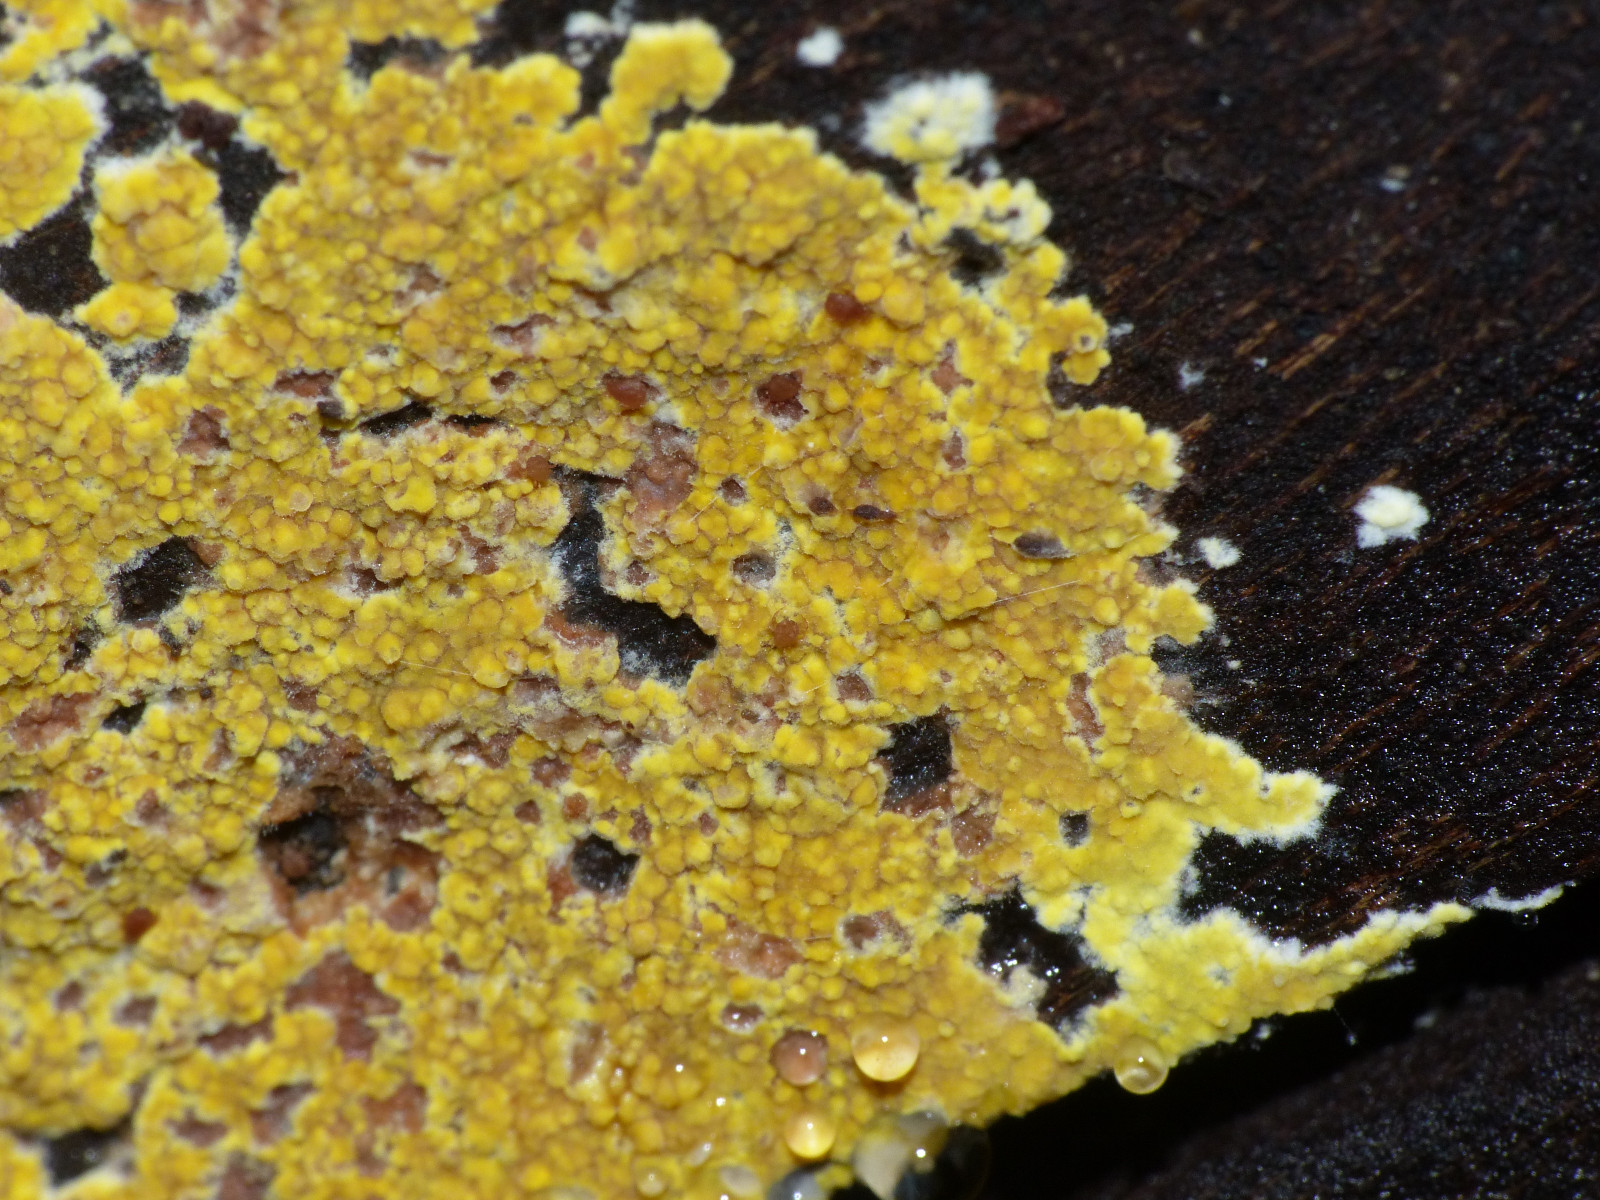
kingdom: Fungi
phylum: Basidiomycota
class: Agaricomycetes
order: Polyporales
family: Meruliaceae
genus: Phlebiodontia
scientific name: Phlebiodontia subochracea
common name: svovl-åresvamp
